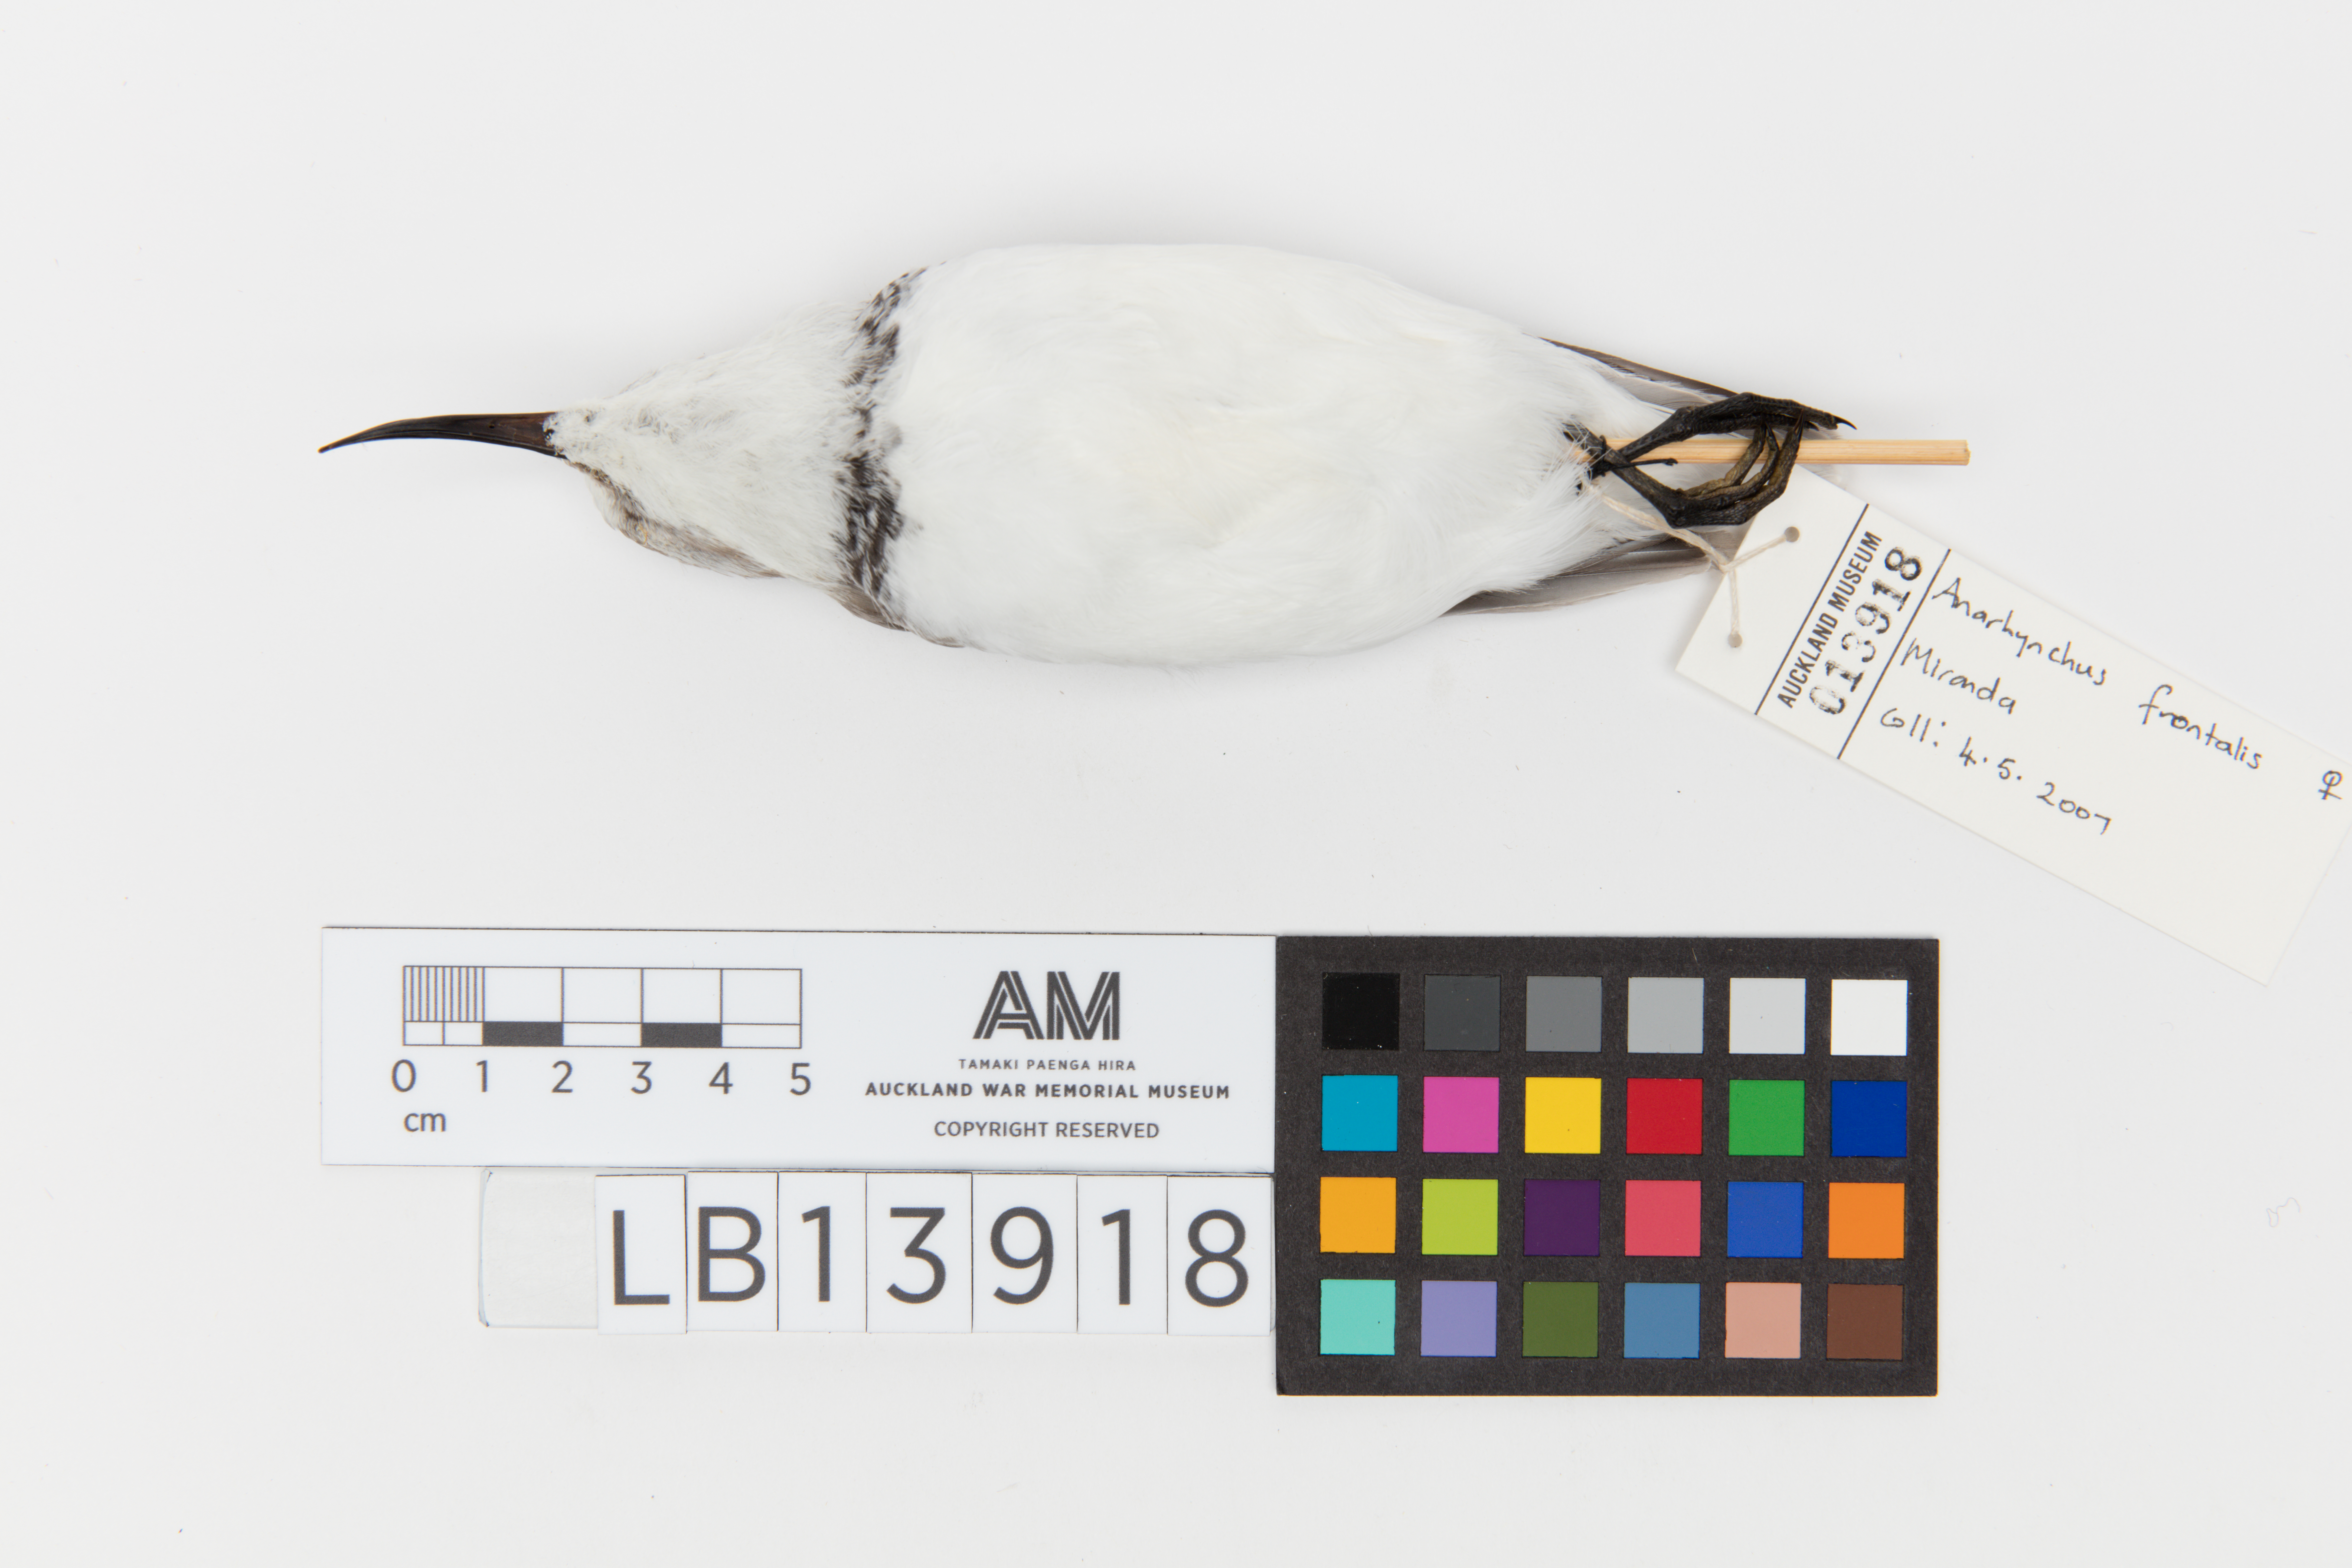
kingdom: Animalia
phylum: Chordata
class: Aves
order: Charadriiformes
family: Charadriidae
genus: Charadrius
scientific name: Charadrius frontalis
